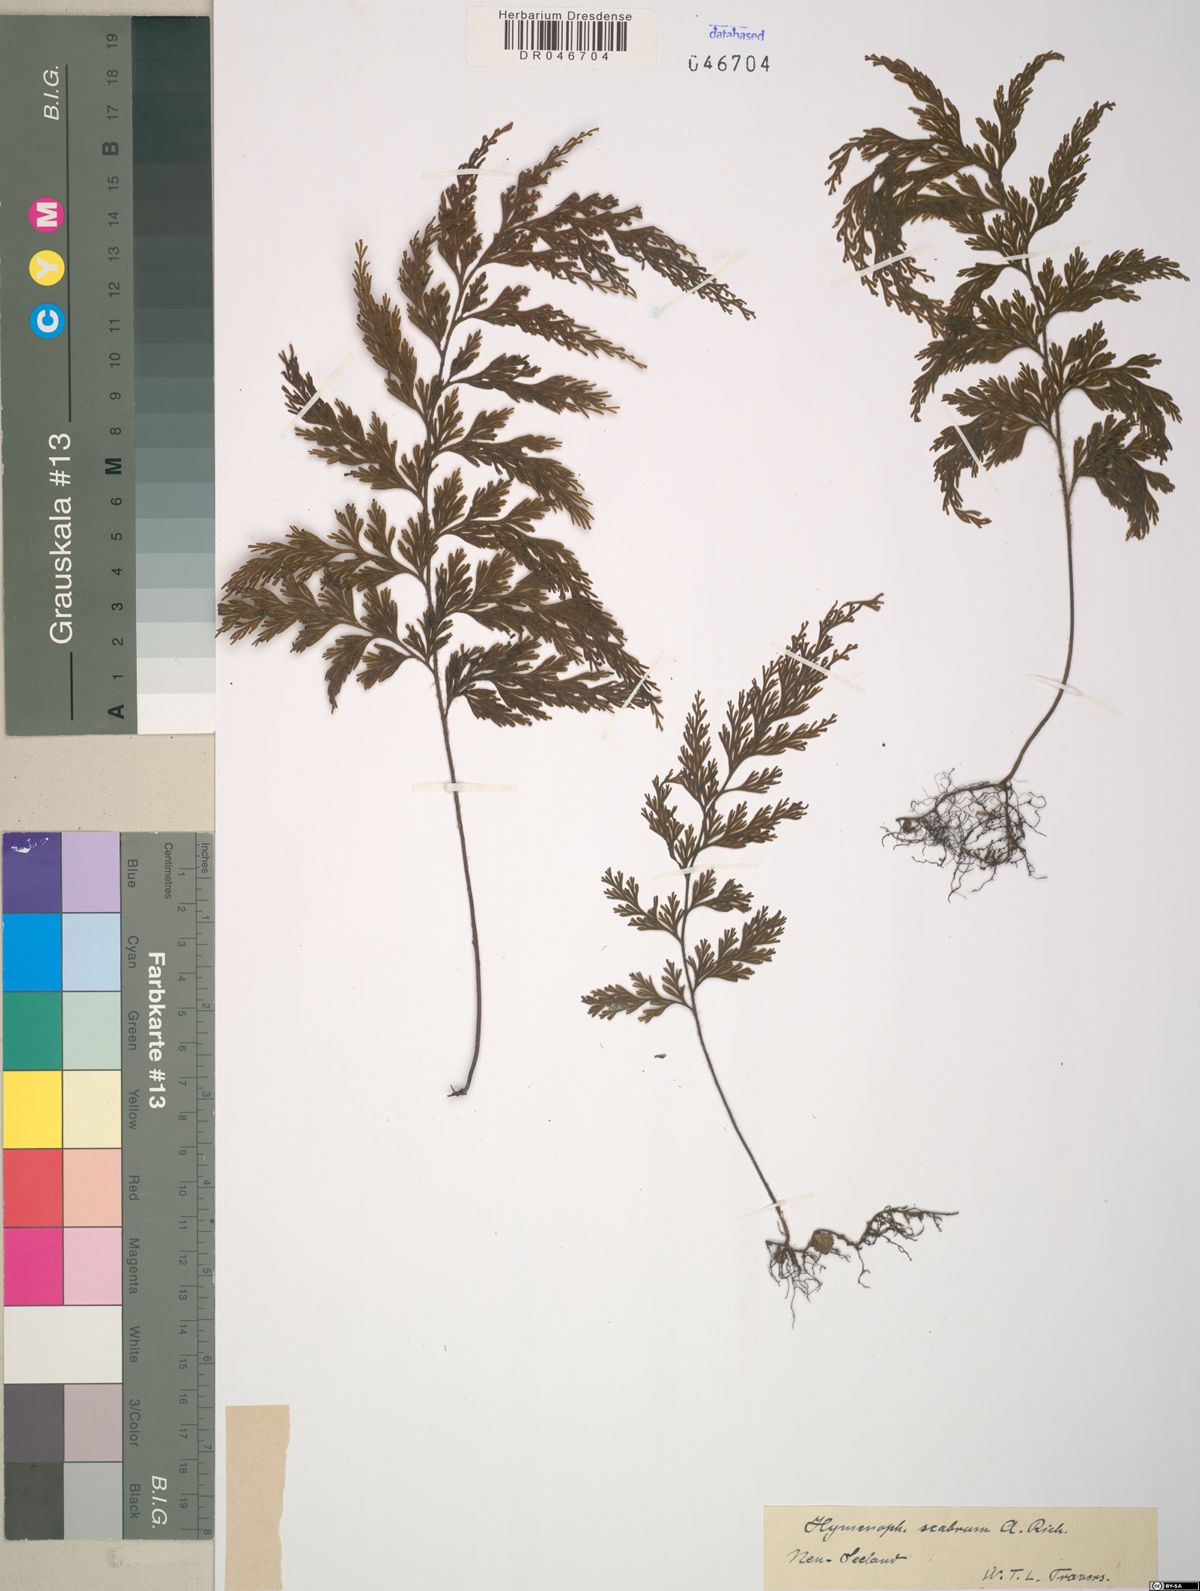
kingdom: Plantae
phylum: Tracheophyta
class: Polypodiopsida
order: Hymenophyllales
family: Hymenophyllaceae
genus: Hymenophyllum
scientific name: Hymenophyllum scabrum
